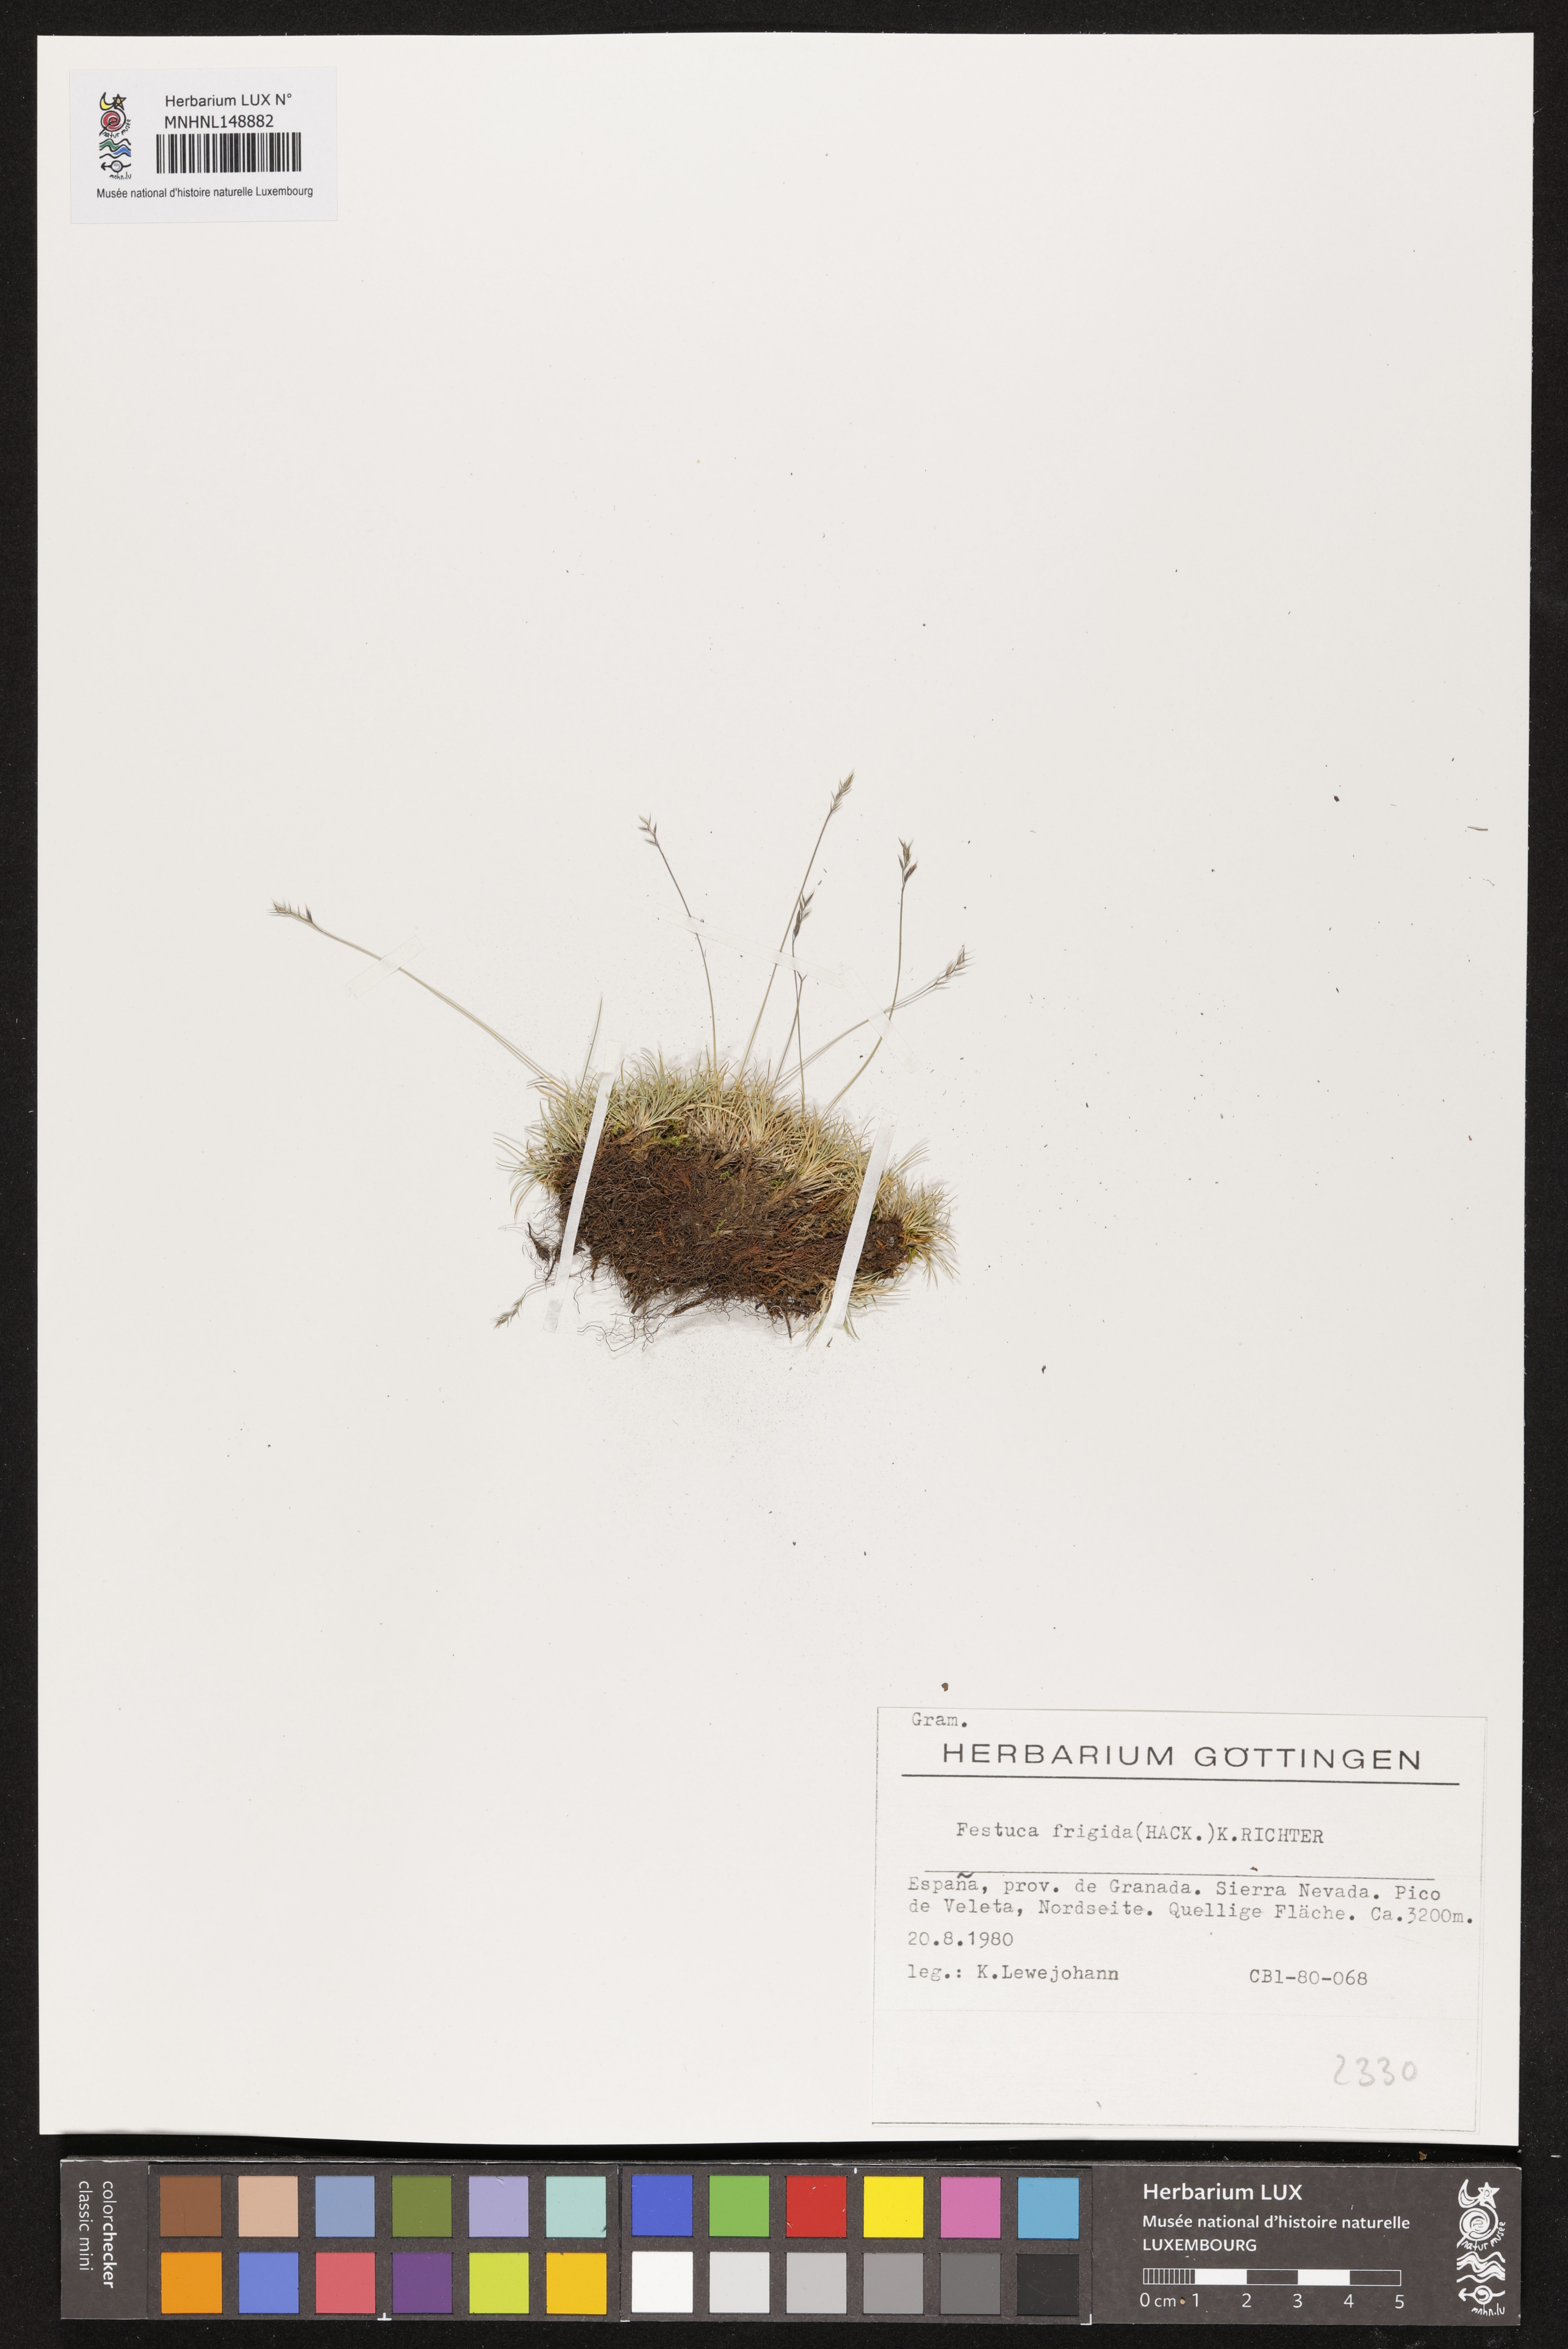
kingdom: Plantae
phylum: Tracheophyta
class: Liliopsida
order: Poales
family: Poaceae
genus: Festuca
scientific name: Festuca frigida
